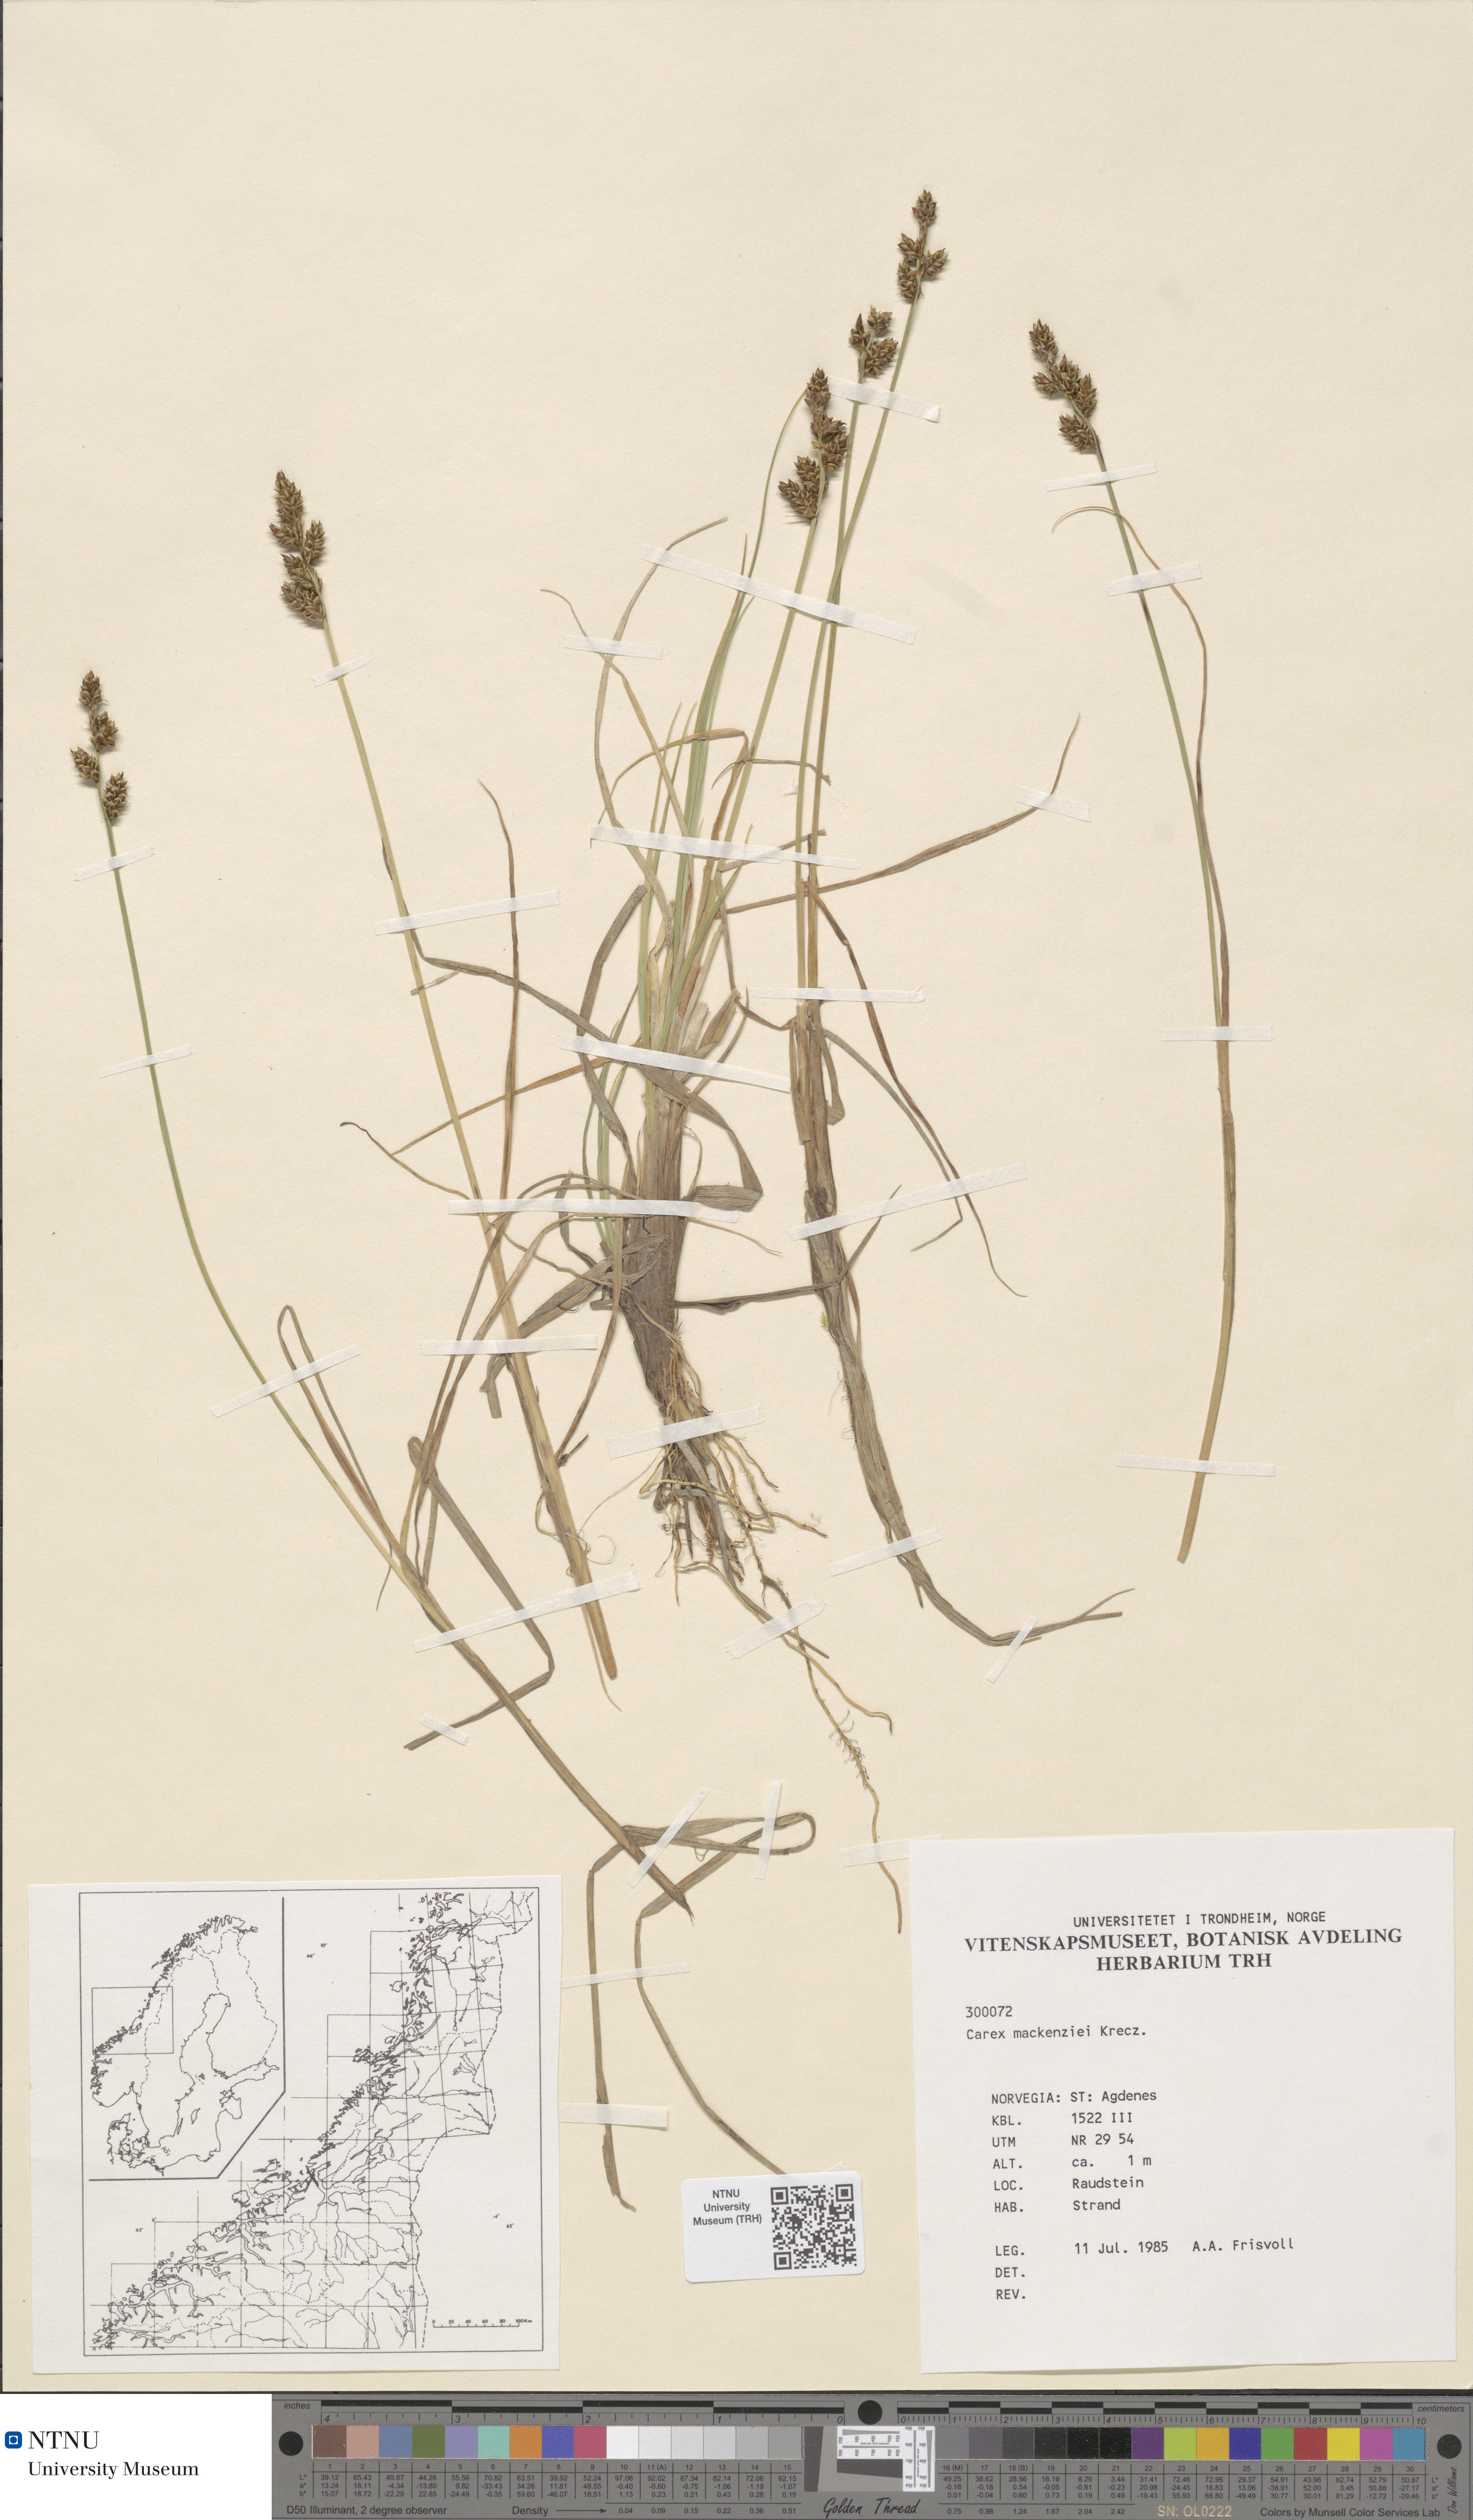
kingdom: Plantae
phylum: Tracheophyta
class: Liliopsida
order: Poales
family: Cyperaceae
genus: Carex
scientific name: Carex mackenziei
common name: Mackenzie's sedge
